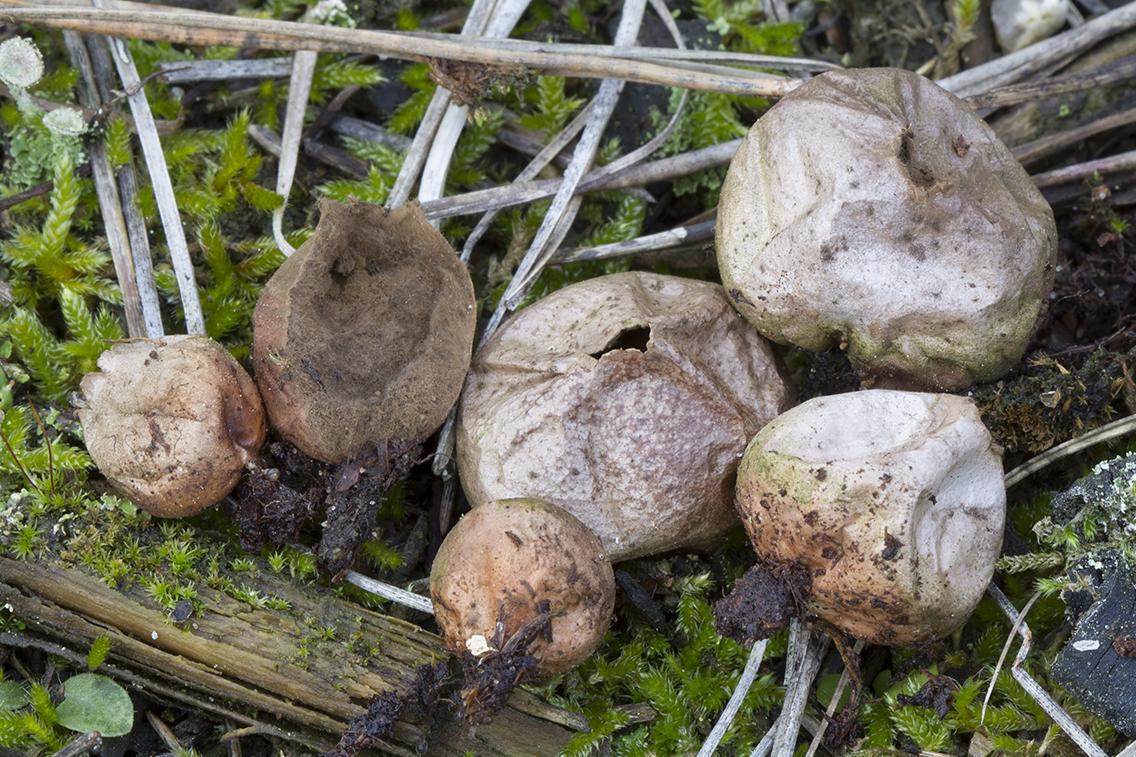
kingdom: Fungi
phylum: Basidiomycota
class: Agaricomycetes
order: Agaricales
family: Lycoperdaceae
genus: Bovista
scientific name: Bovista aestivalis
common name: klit-bovist
